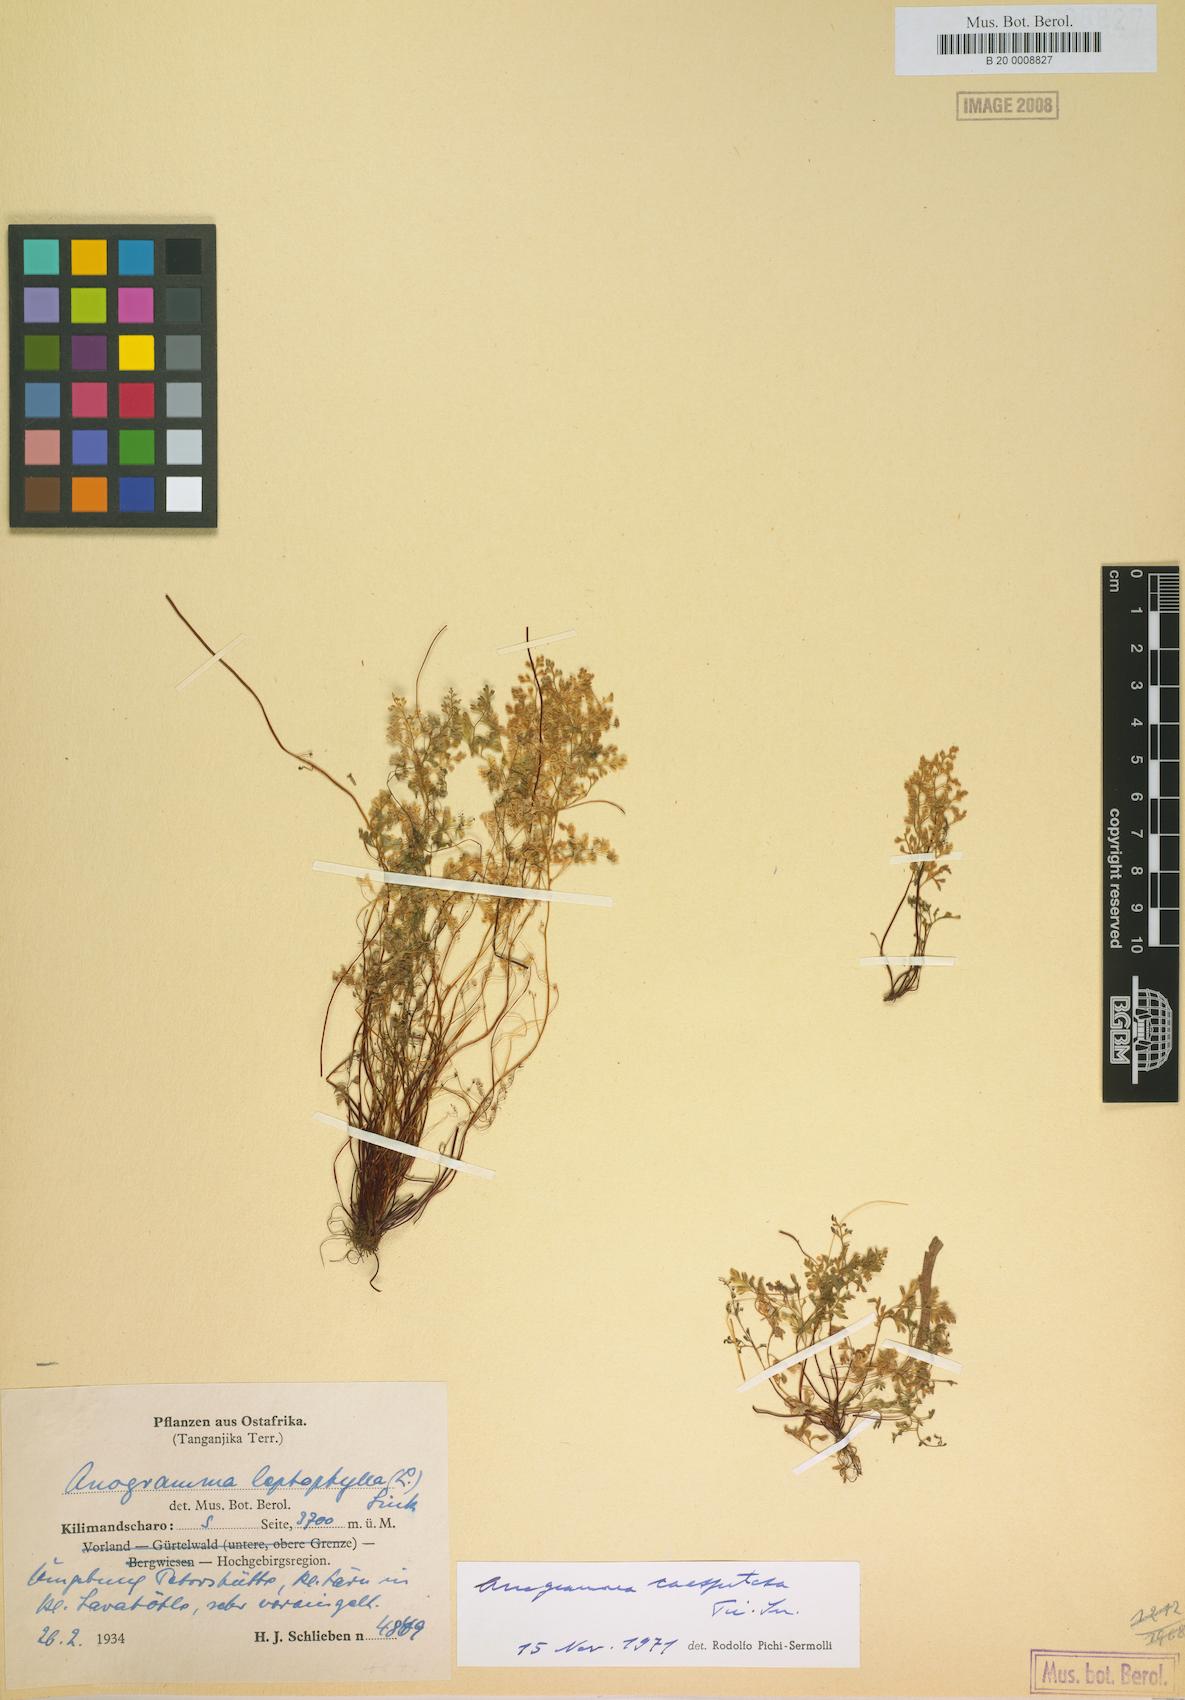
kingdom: Plantae
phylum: Tracheophyta
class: Polypodiopsida
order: Polypodiales
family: Pteridaceae
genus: Anogramma
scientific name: Anogramma leptophylla
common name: Jersey fern
